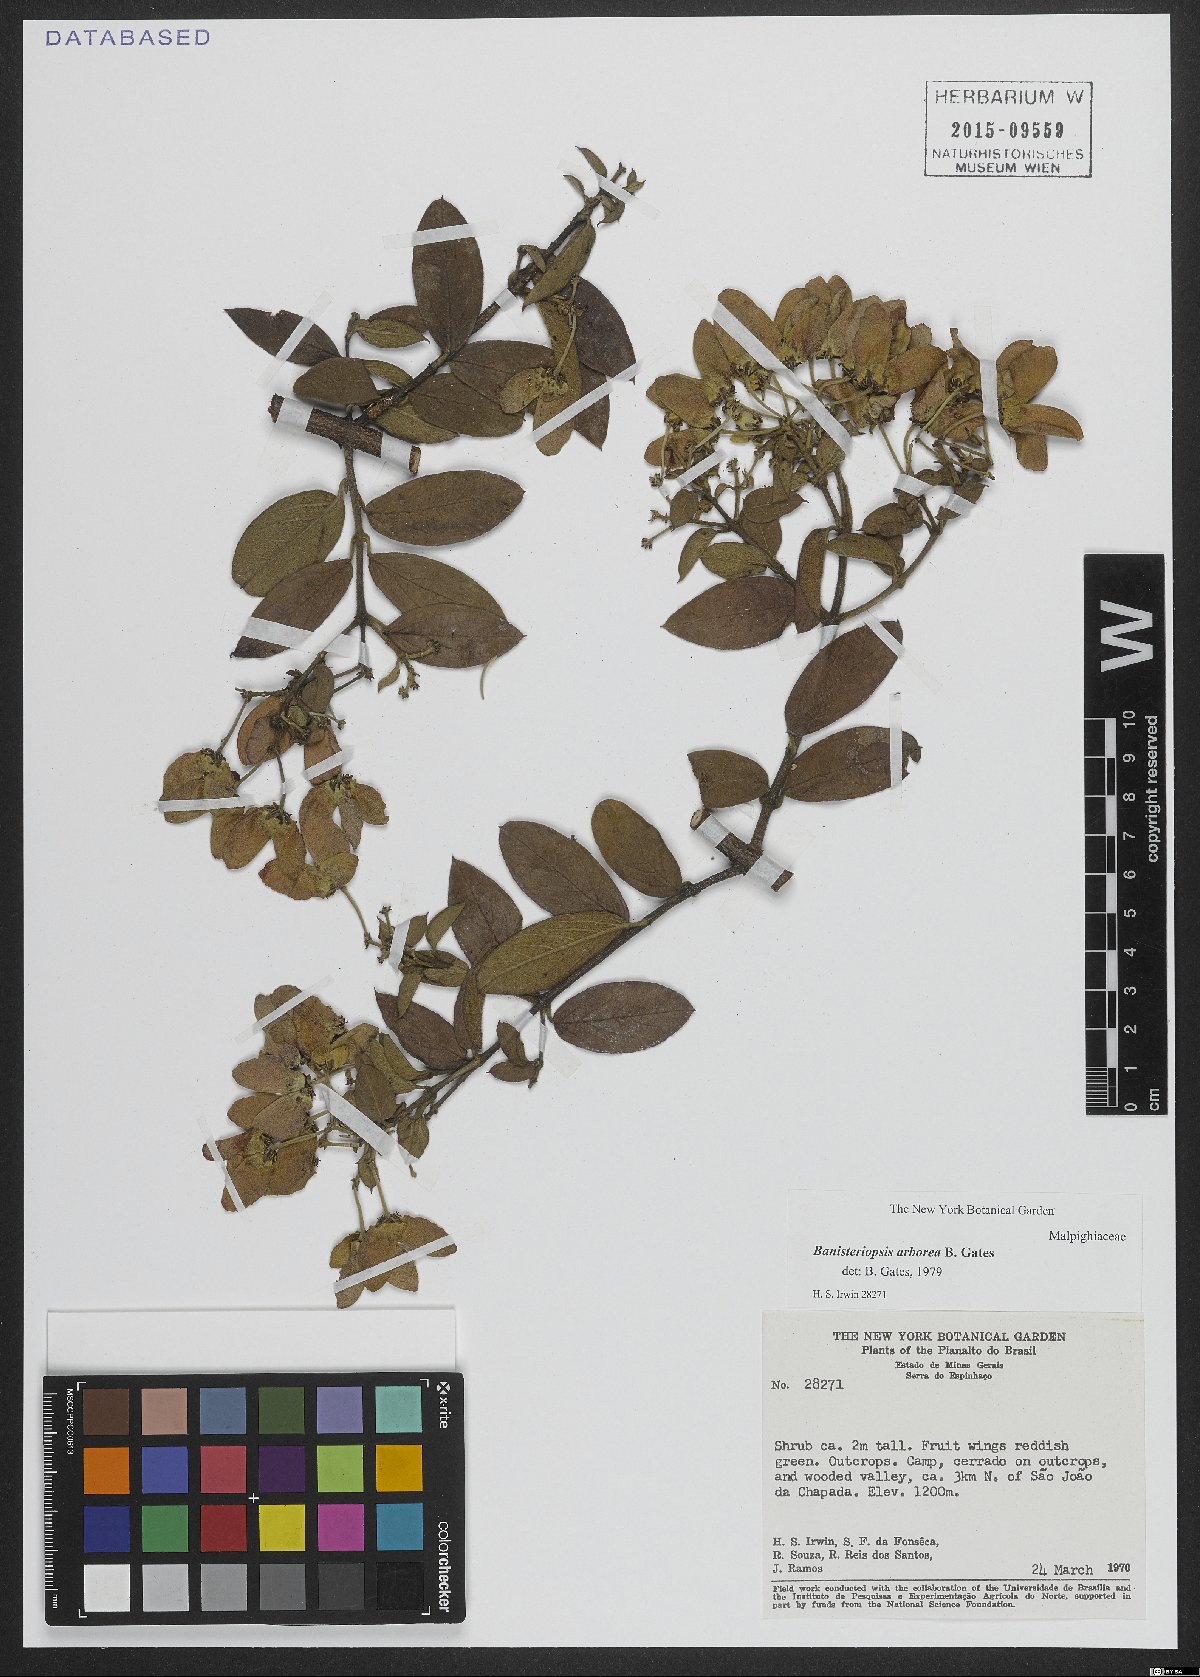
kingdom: Plantae
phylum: Tracheophyta
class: Magnoliopsida
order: Malpighiales
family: Malpighiaceae
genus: Banisteriopsis
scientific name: Banisteriopsis arborea
